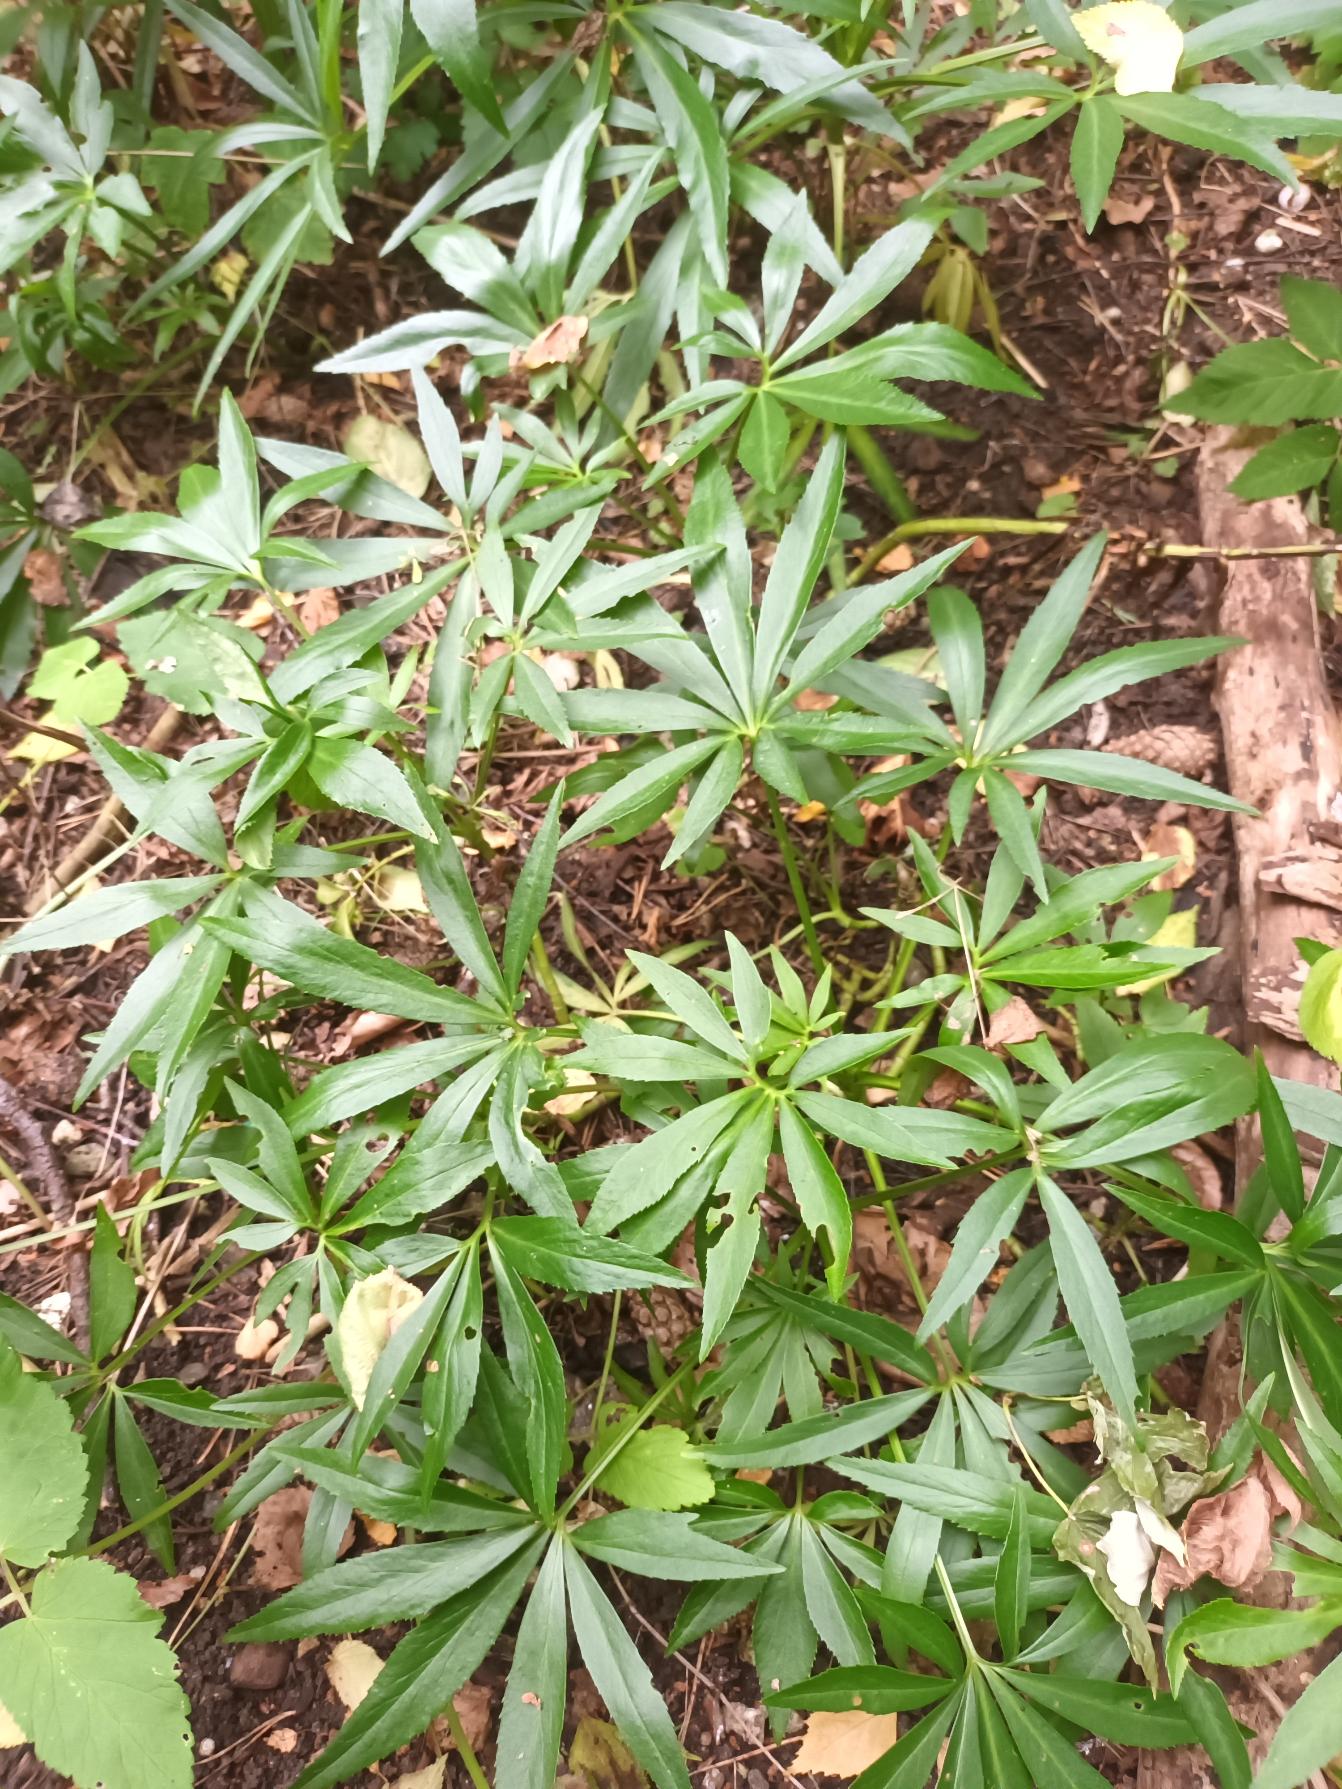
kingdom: Plantae
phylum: Tracheophyta
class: Magnoliopsida
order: Ranunculales
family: Ranunculaceae
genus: Helleborus
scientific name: Helleborus foetidus
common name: Stinkende julerose
